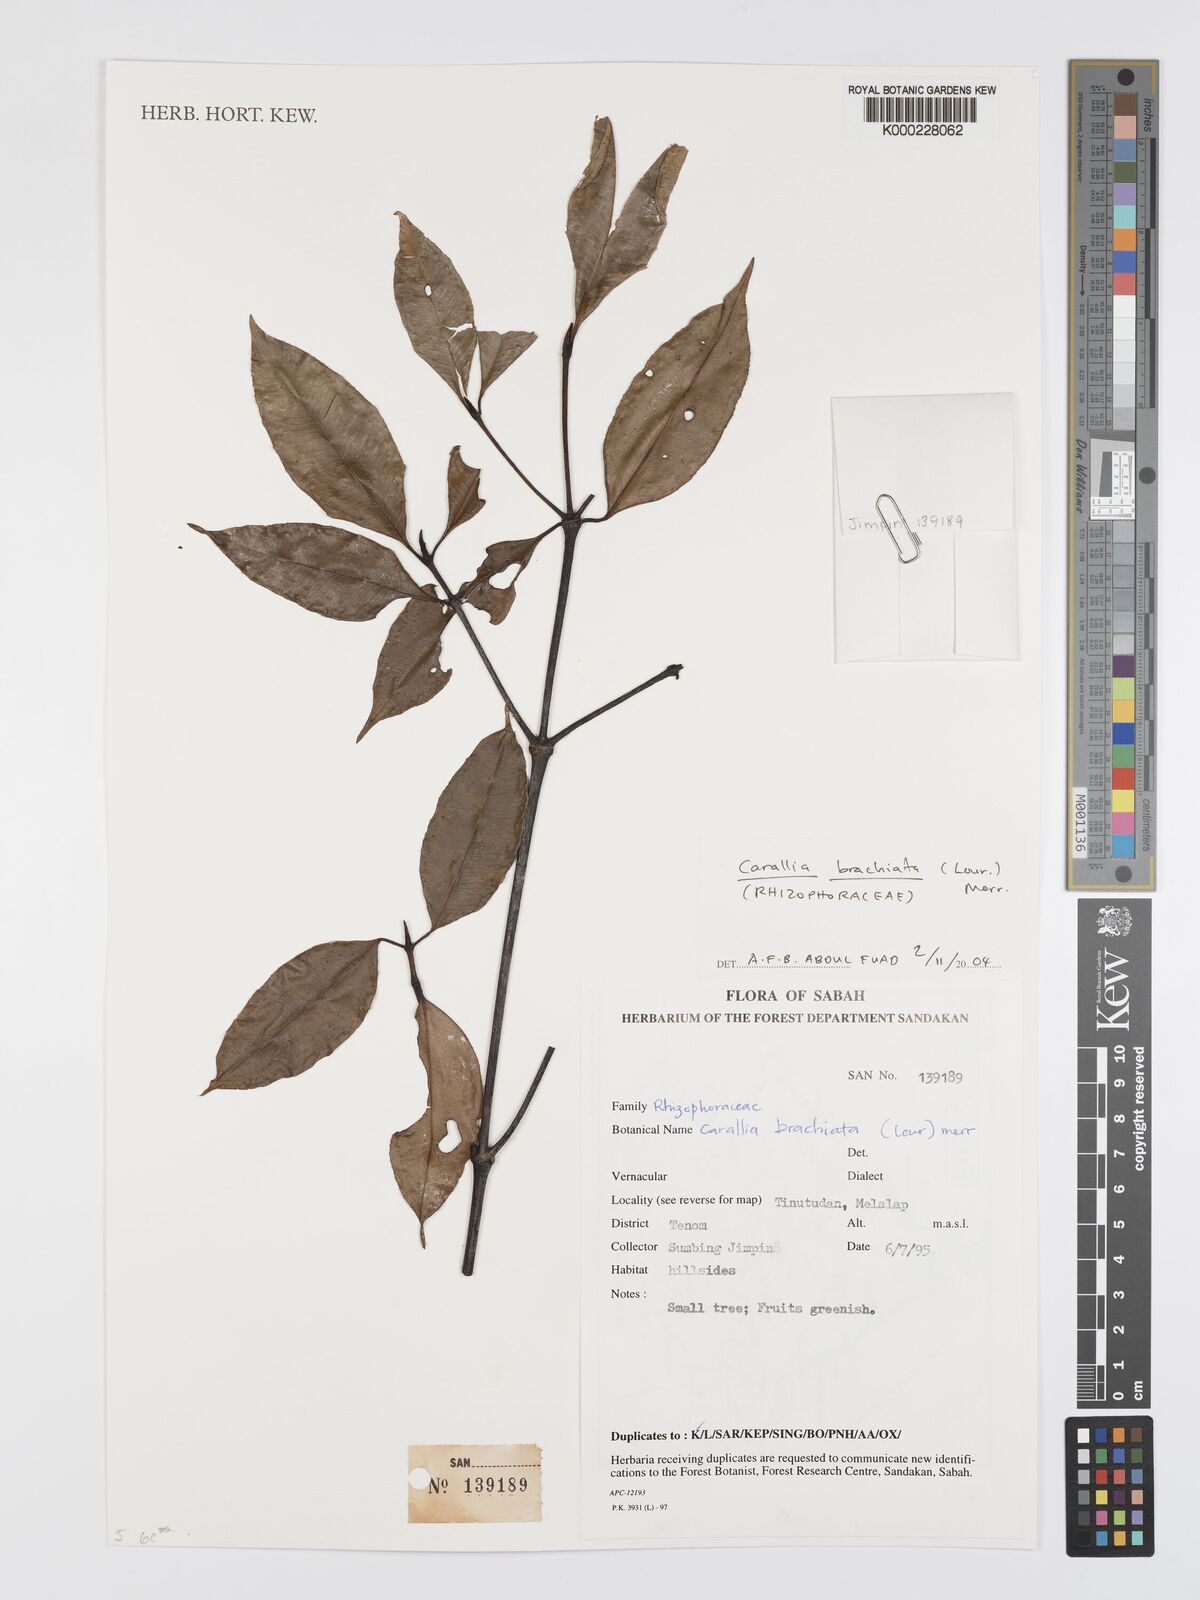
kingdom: Plantae
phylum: Tracheophyta
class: Magnoliopsida
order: Malpighiales
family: Rhizophoraceae
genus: Carallia
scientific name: Carallia brachiata
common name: Carallawood
